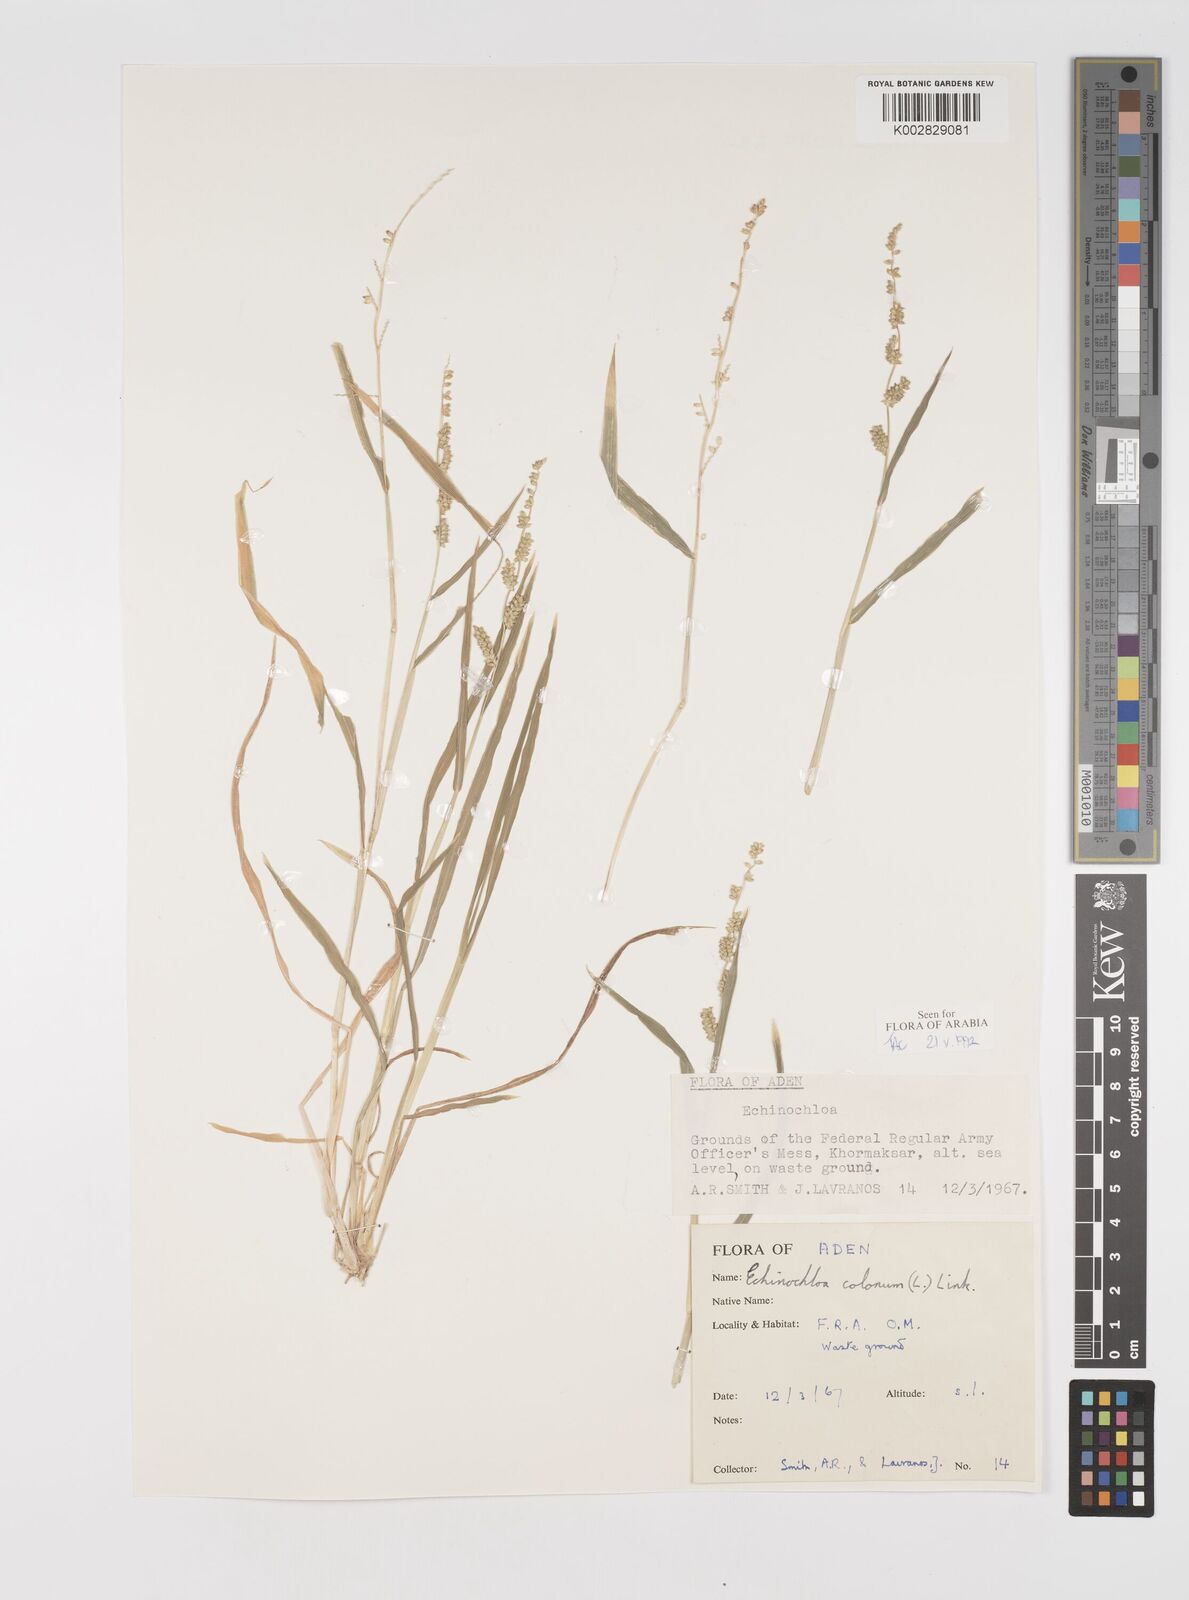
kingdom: Plantae
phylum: Tracheophyta
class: Liliopsida
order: Poales
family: Poaceae
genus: Echinochloa
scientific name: Echinochloa colonum
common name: Jungle rice
